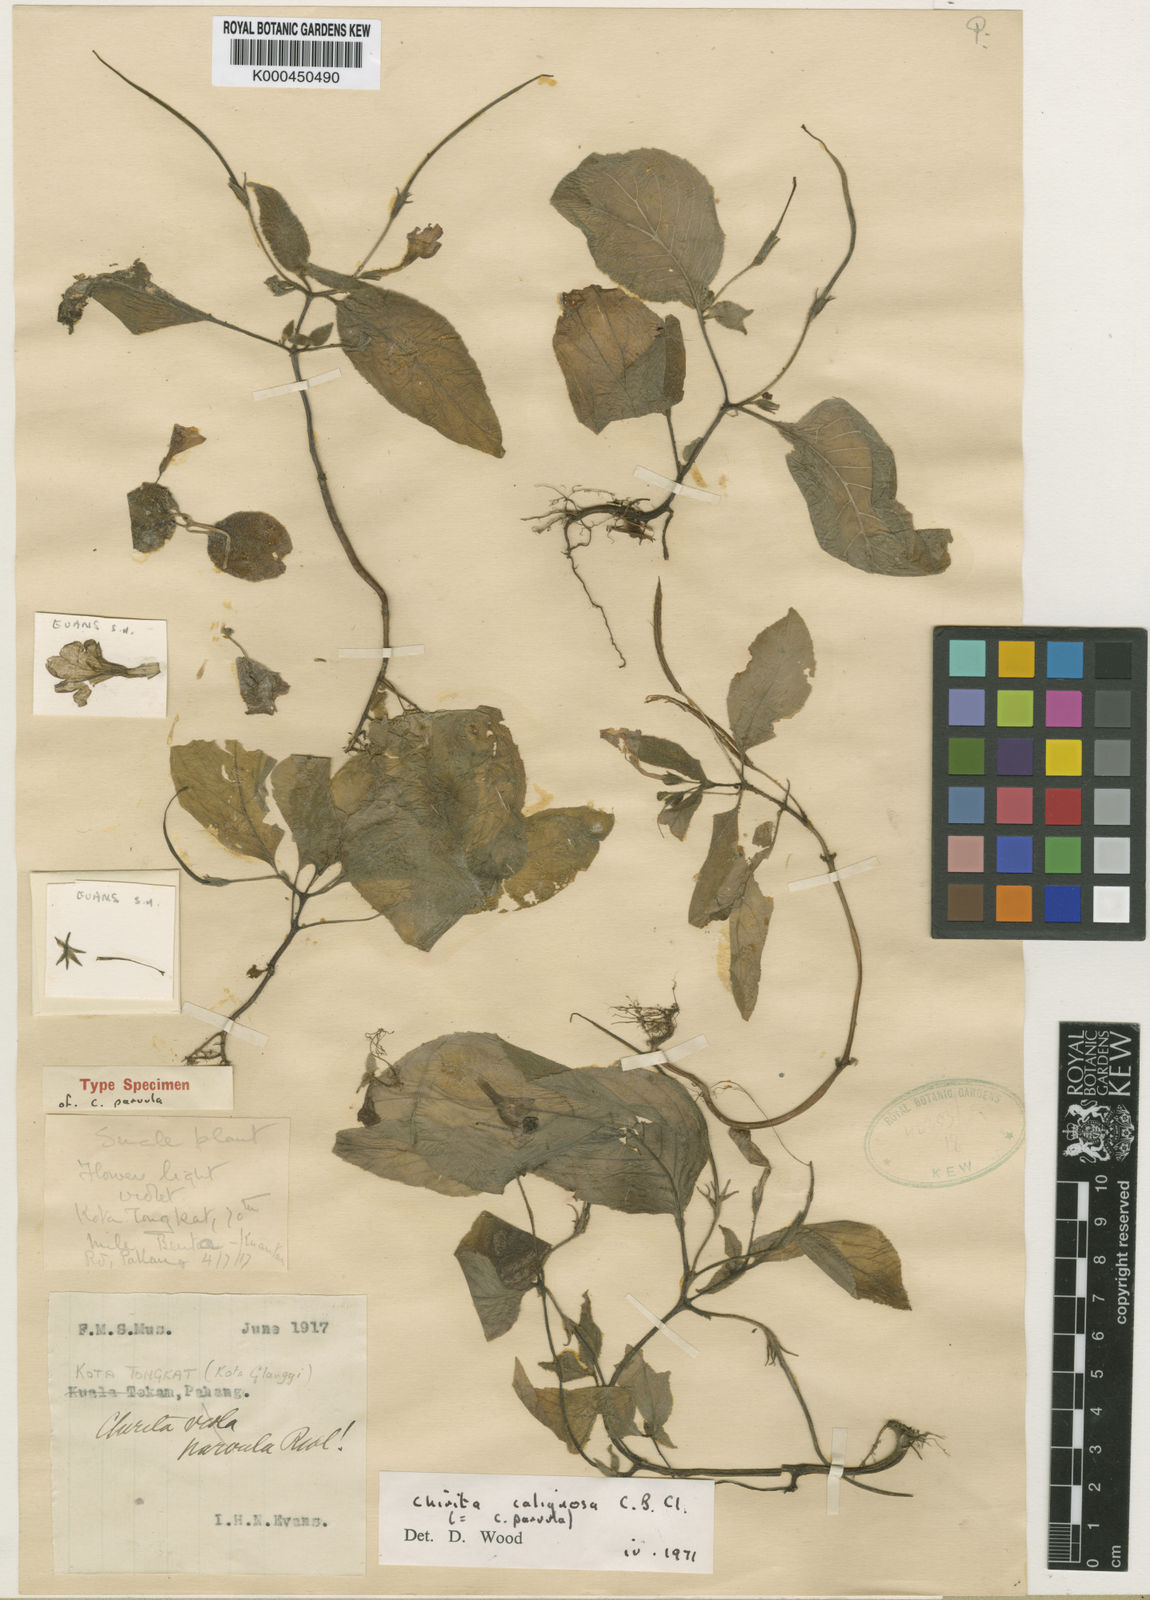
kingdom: Plantae
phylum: Tracheophyta
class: Magnoliopsida
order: Lamiales
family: Gesneriaceae
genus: Microchirita
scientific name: Microchirita caliginosa
